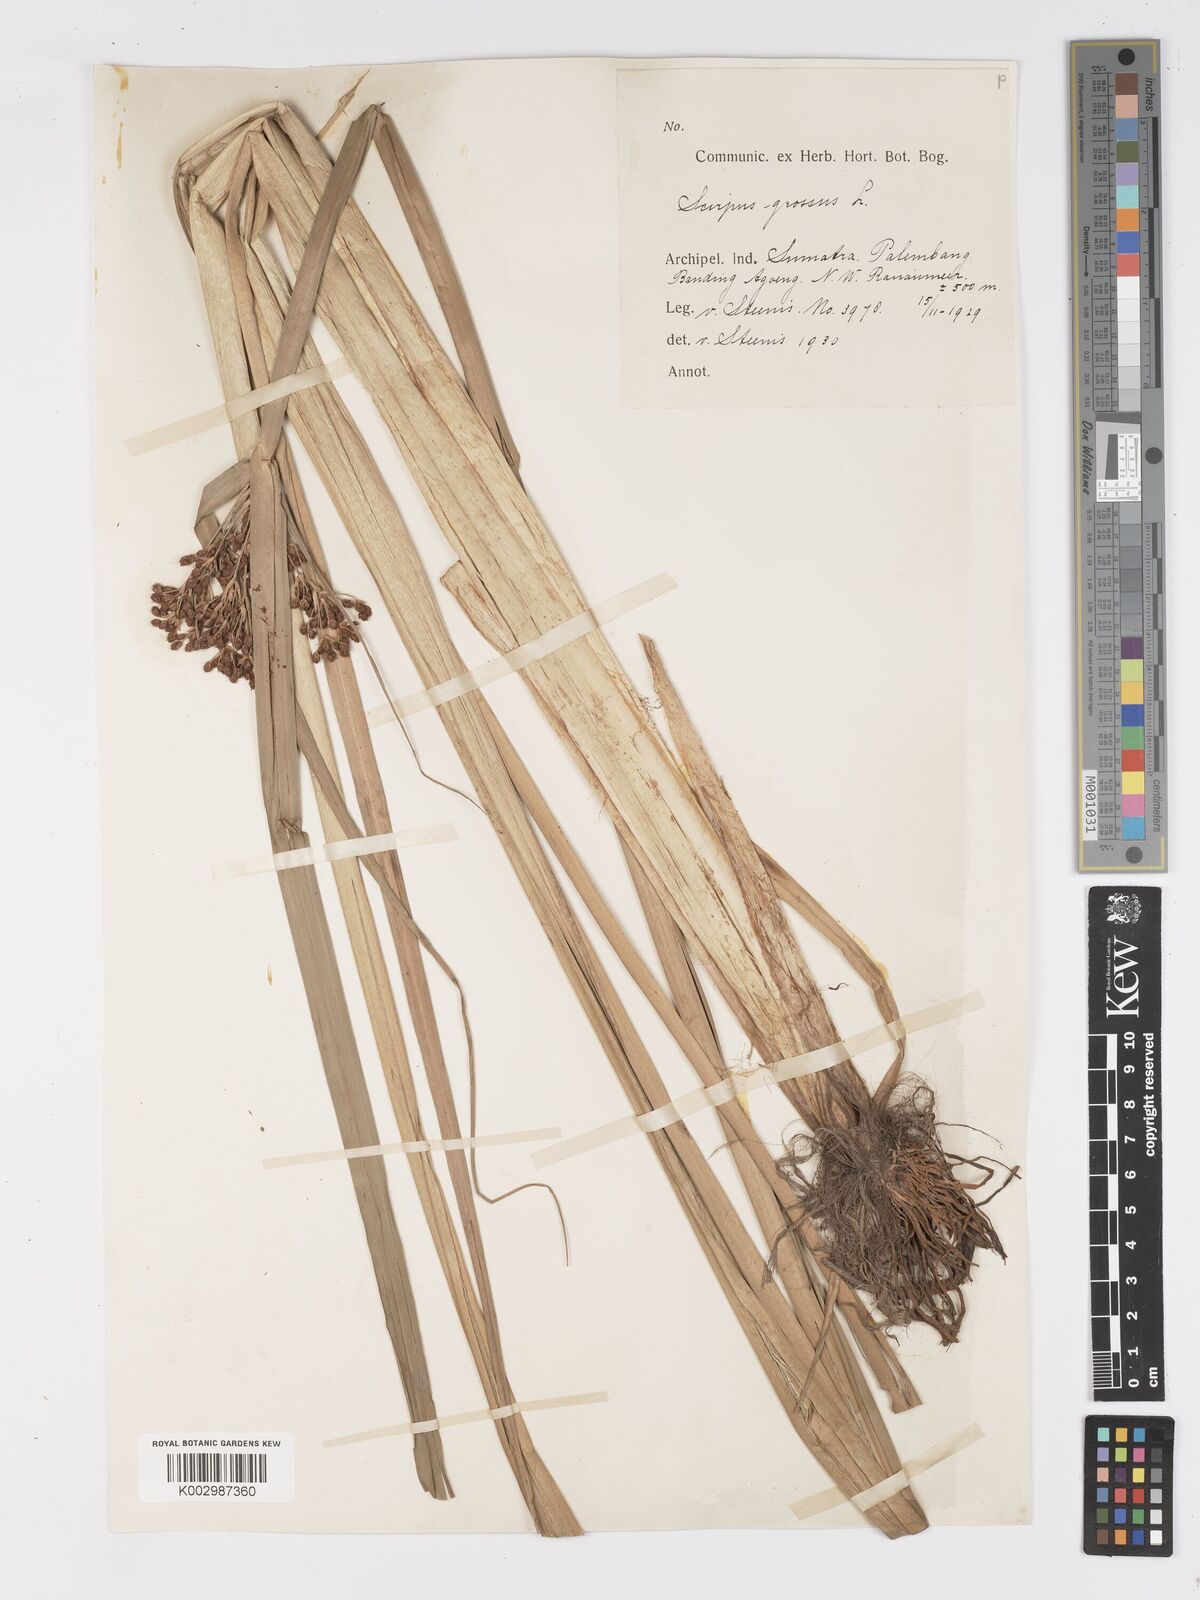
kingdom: Plantae
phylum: Tracheophyta
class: Liliopsida
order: Poales
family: Cyperaceae
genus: Actinoscirpus
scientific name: Actinoscirpus grossus
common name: Giant bur rush
